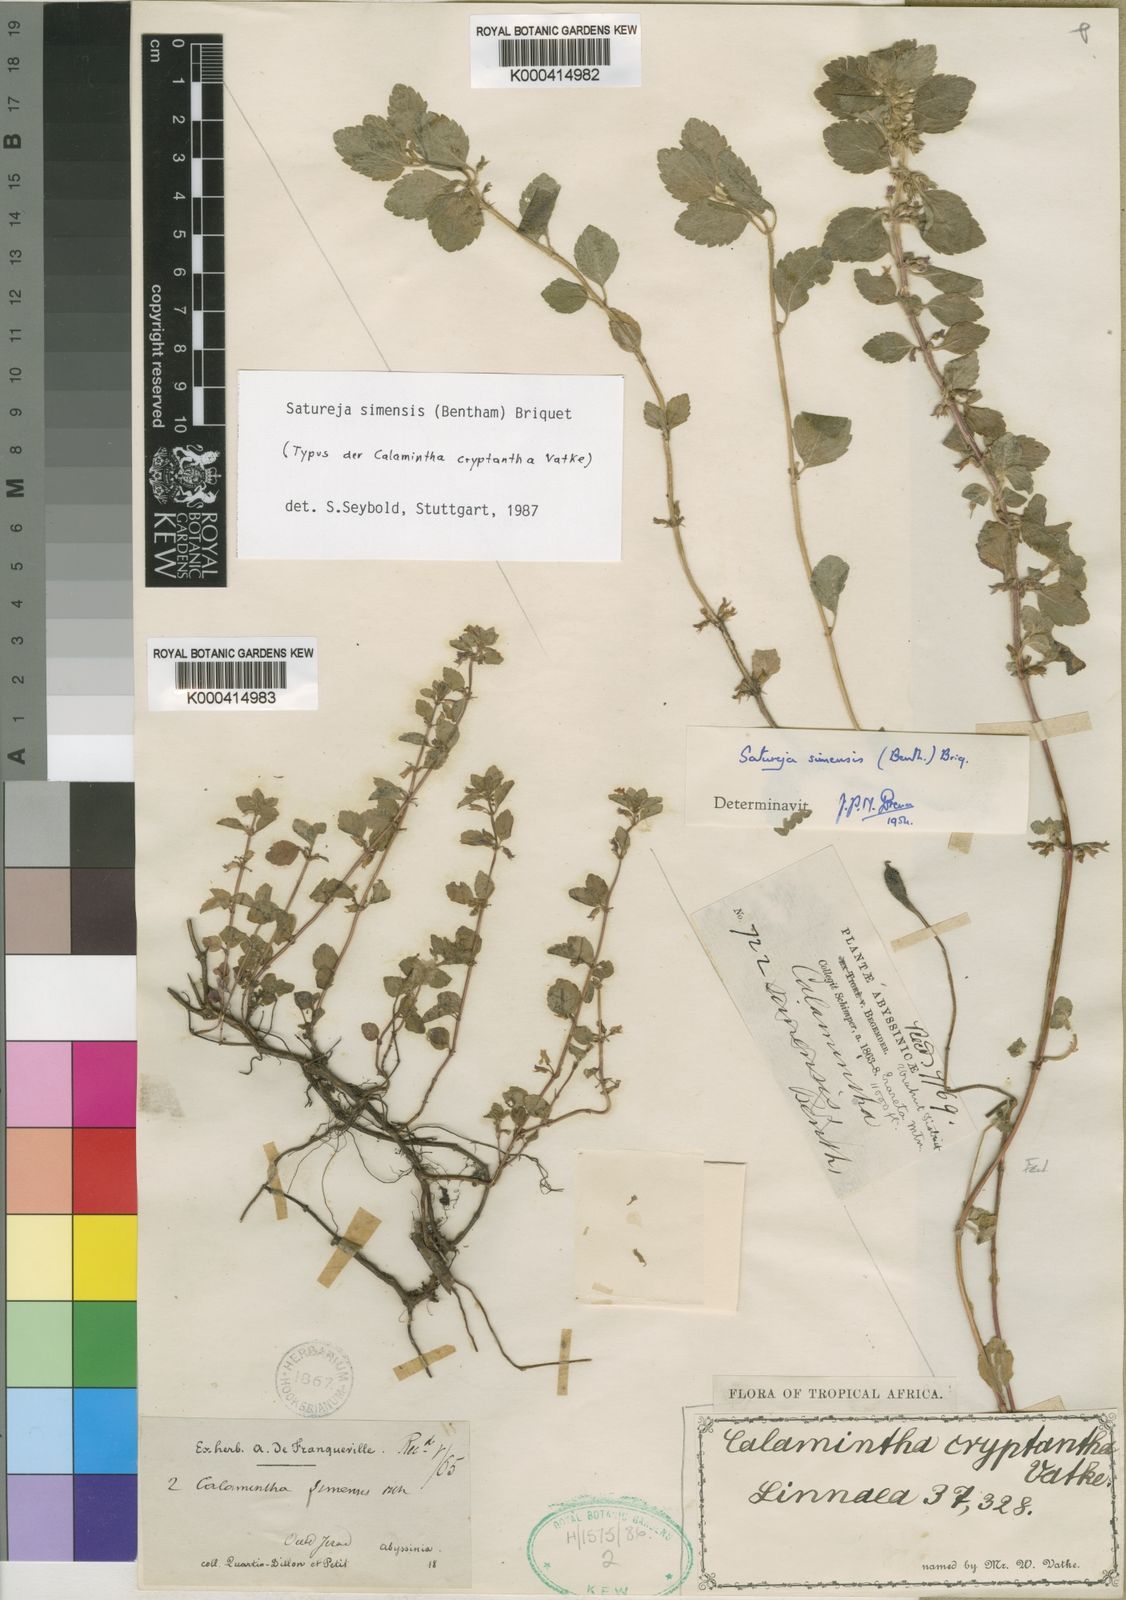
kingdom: Plantae
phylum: Tracheophyta
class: Magnoliopsida
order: Lamiales
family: Lamiaceae
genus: Clinopodium
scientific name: Clinopodium simense
